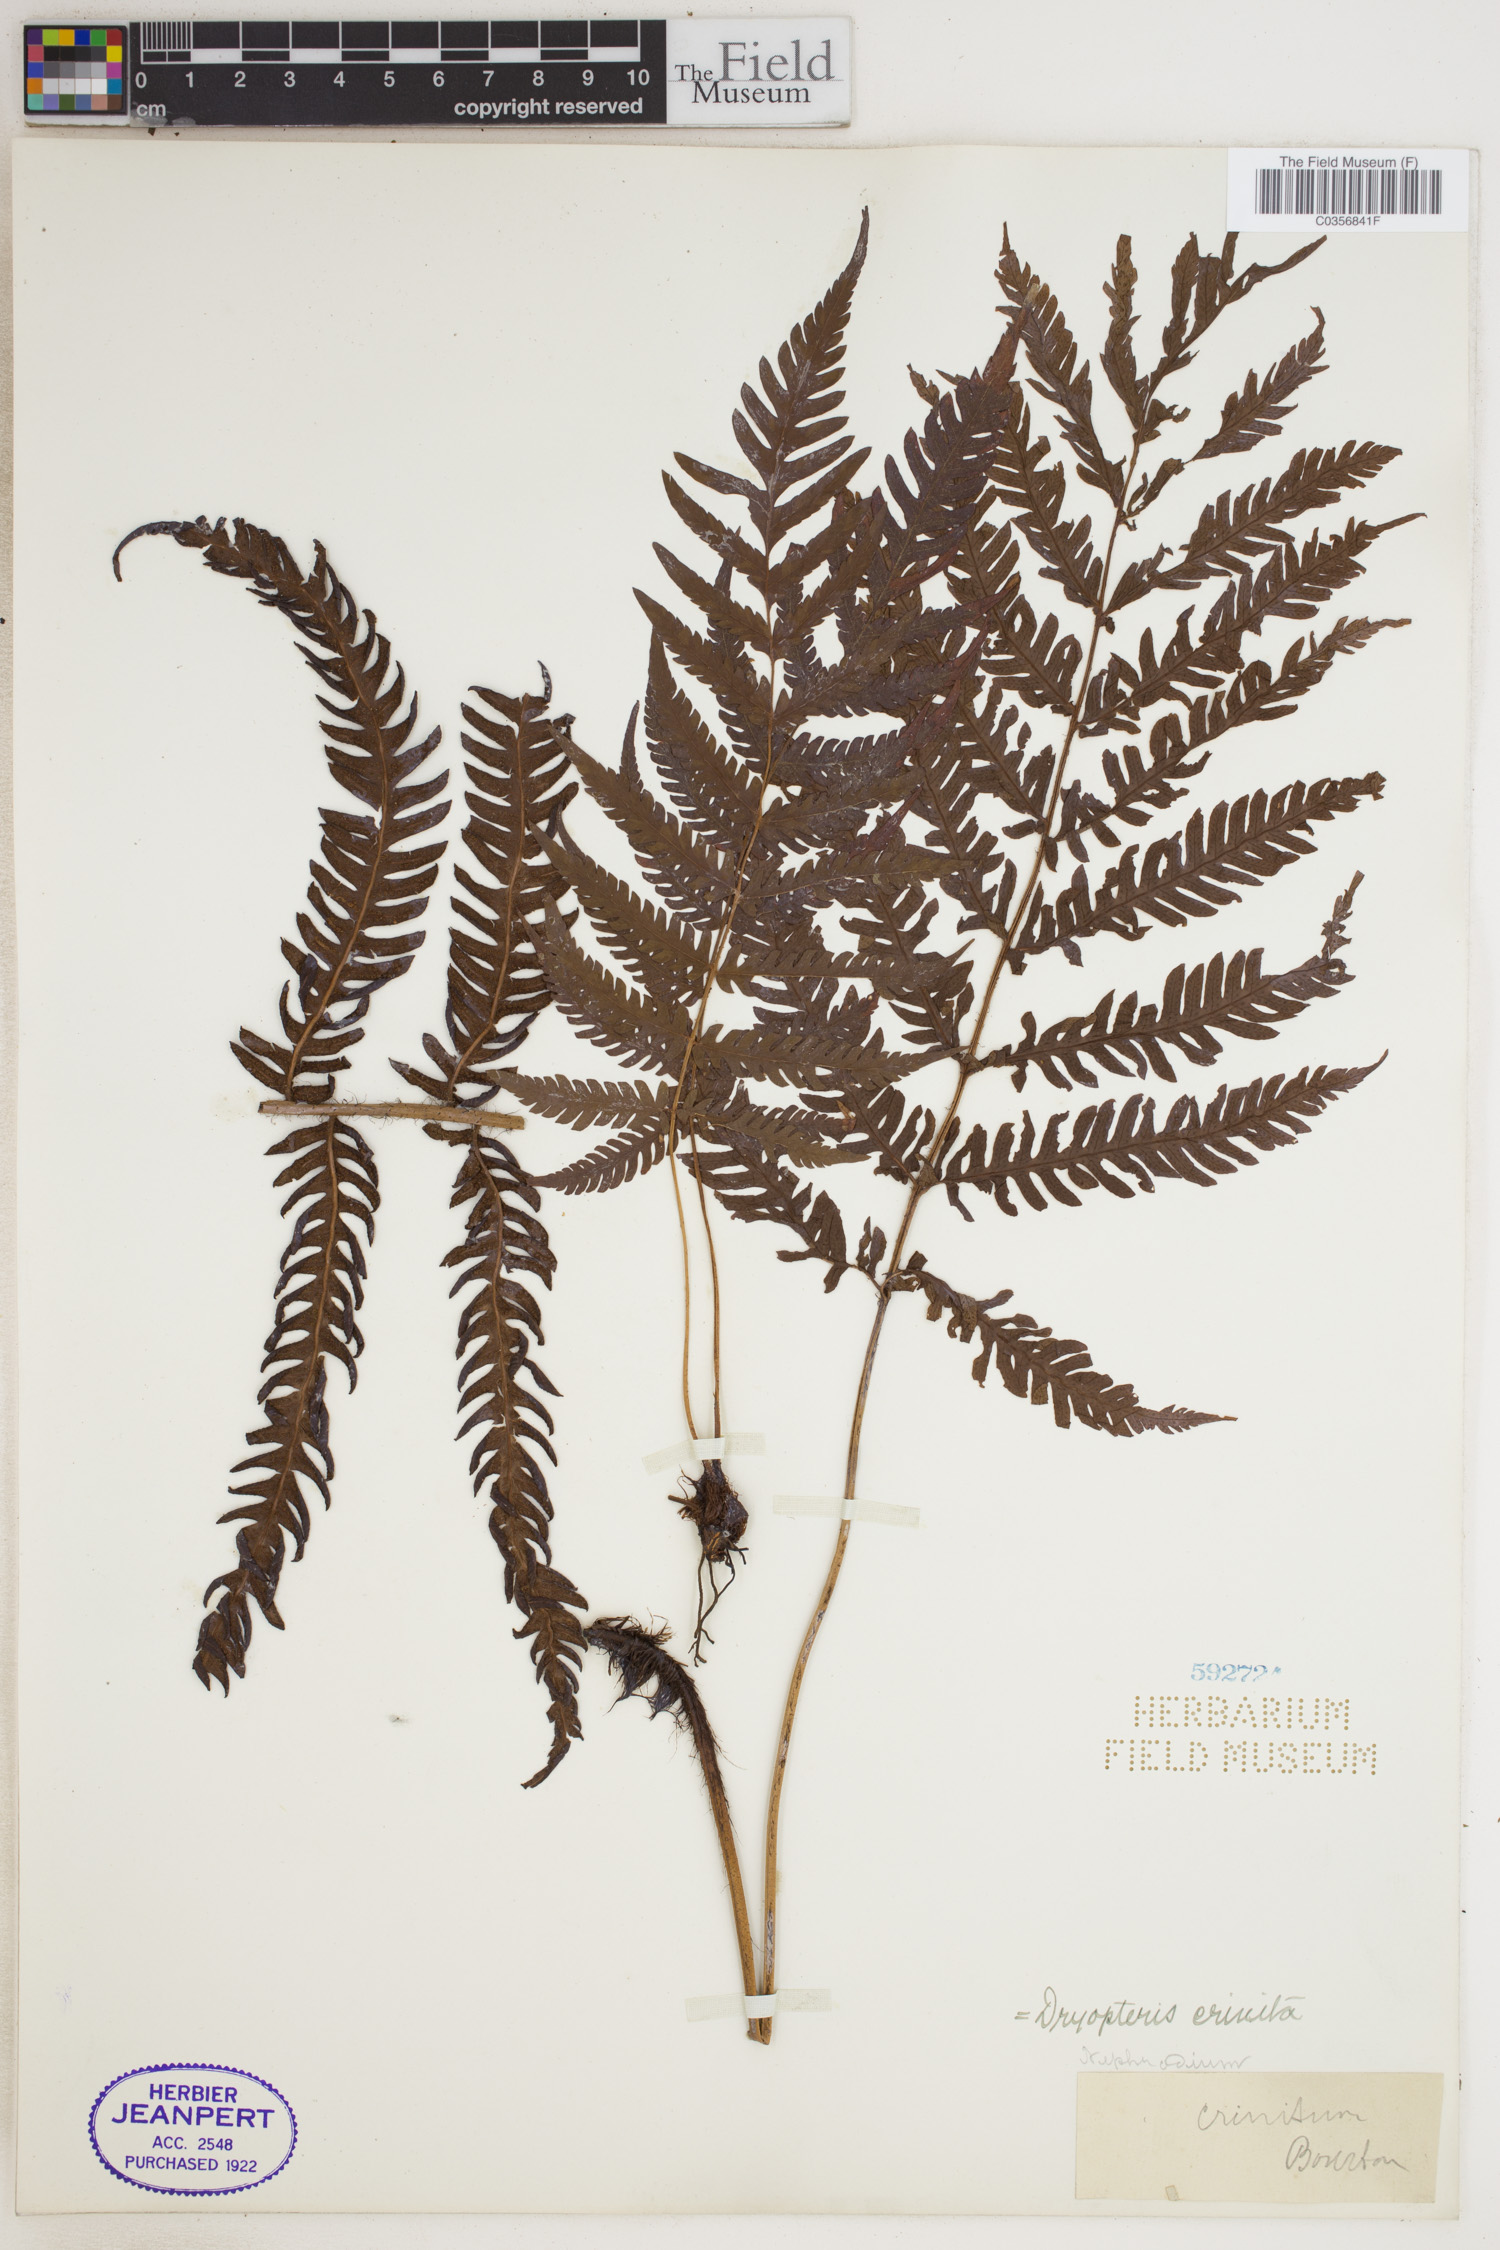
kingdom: Plantae
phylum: Tracheophyta
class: Polypodiopsida
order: Polypodiales
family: Dryopteridaceae
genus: Ctenitis
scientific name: Ctenitis crinita
